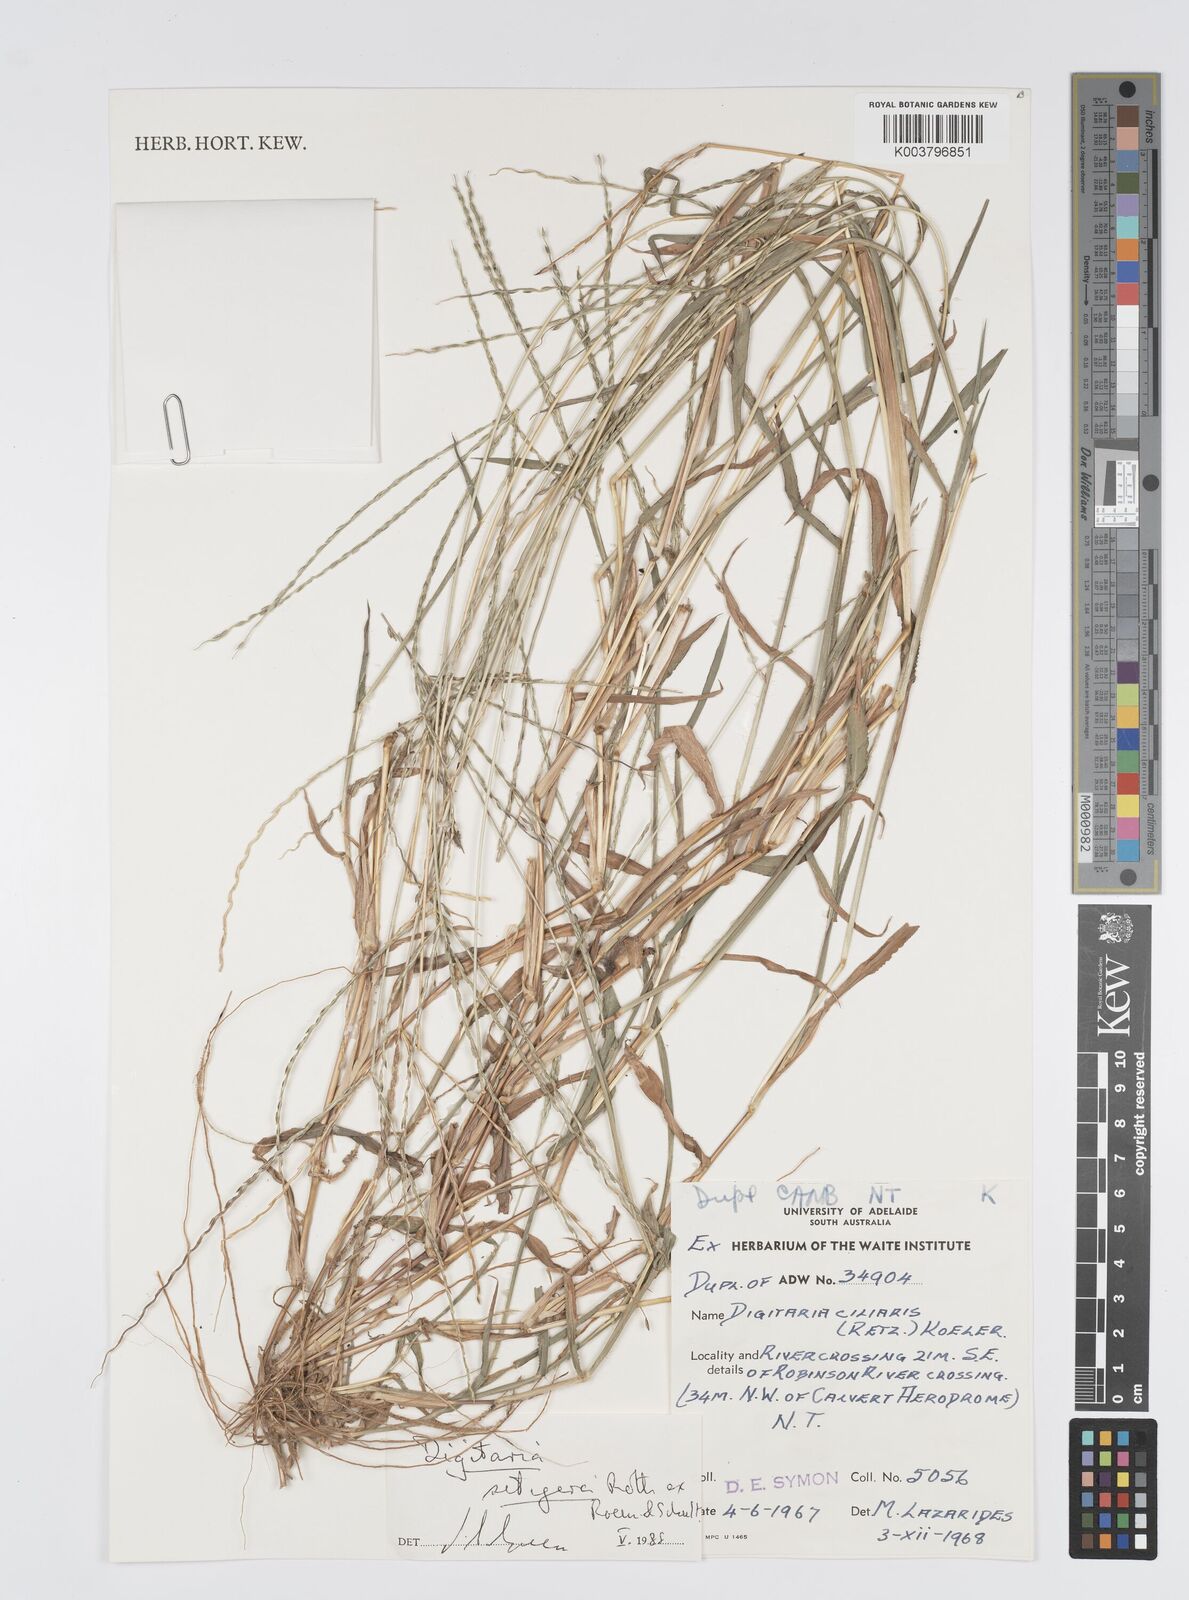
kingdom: Plantae
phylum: Tracheophyta
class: Liliopsida
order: Poales
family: Poaceae
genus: Digitaria
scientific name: Digitaria setigera
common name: East indian crabgrass
